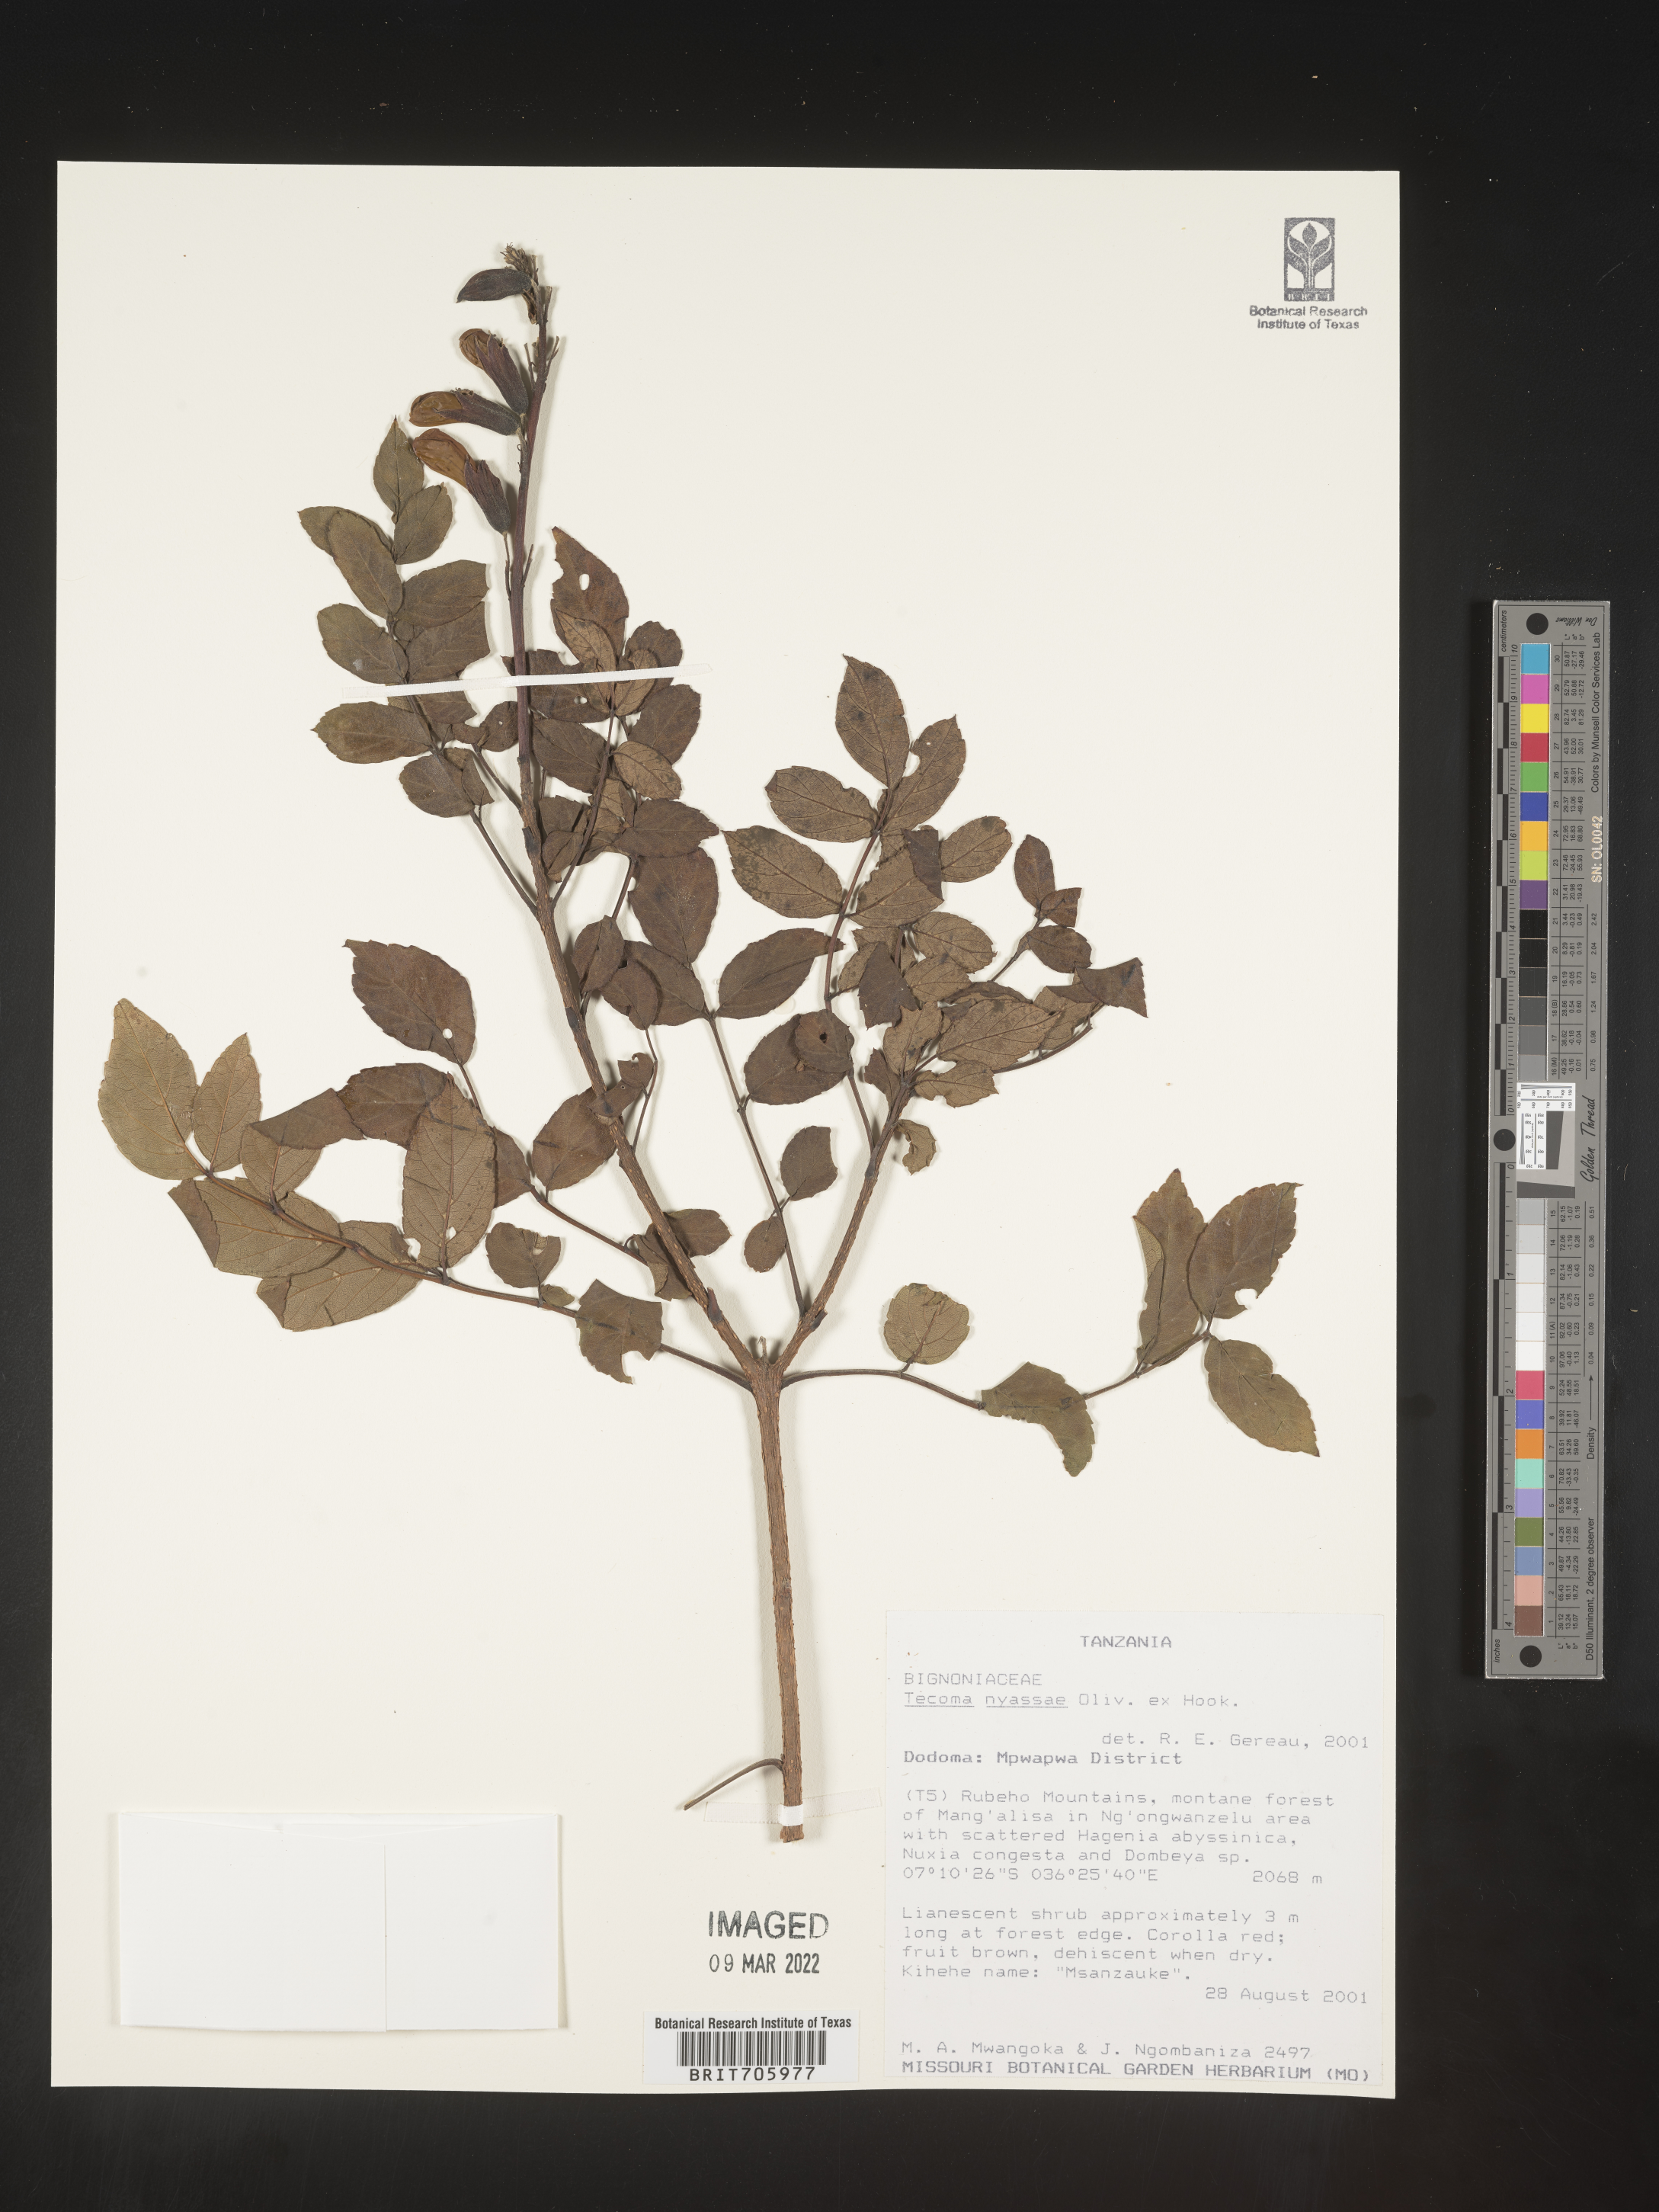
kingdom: Plantae
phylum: Tracheophyta
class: Magnoliopsida
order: Lamiales
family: Bignoniaceae
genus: Tecoma
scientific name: Tecoma
